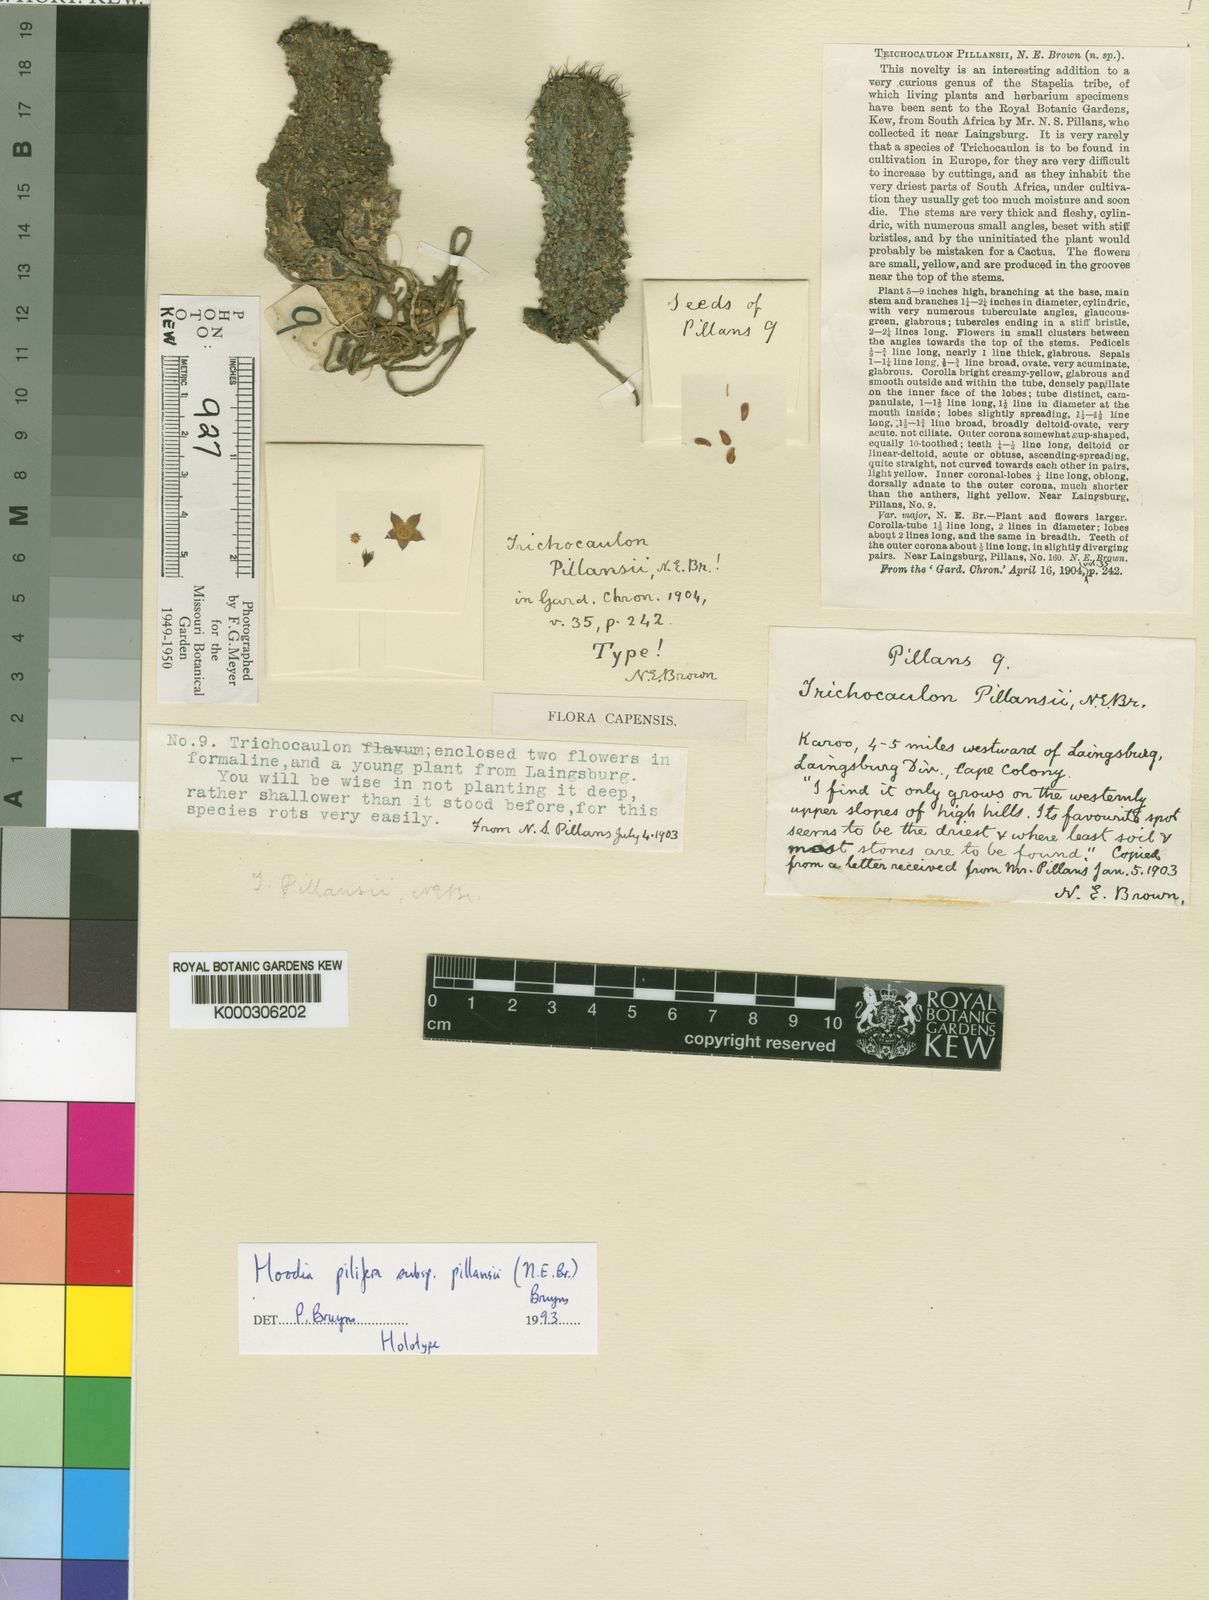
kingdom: Plantae
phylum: Tracheophyta
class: Magnoliopsida
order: Gentianales
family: Apocynaceae
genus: Ceropegia
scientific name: Ceropegia gordonii
